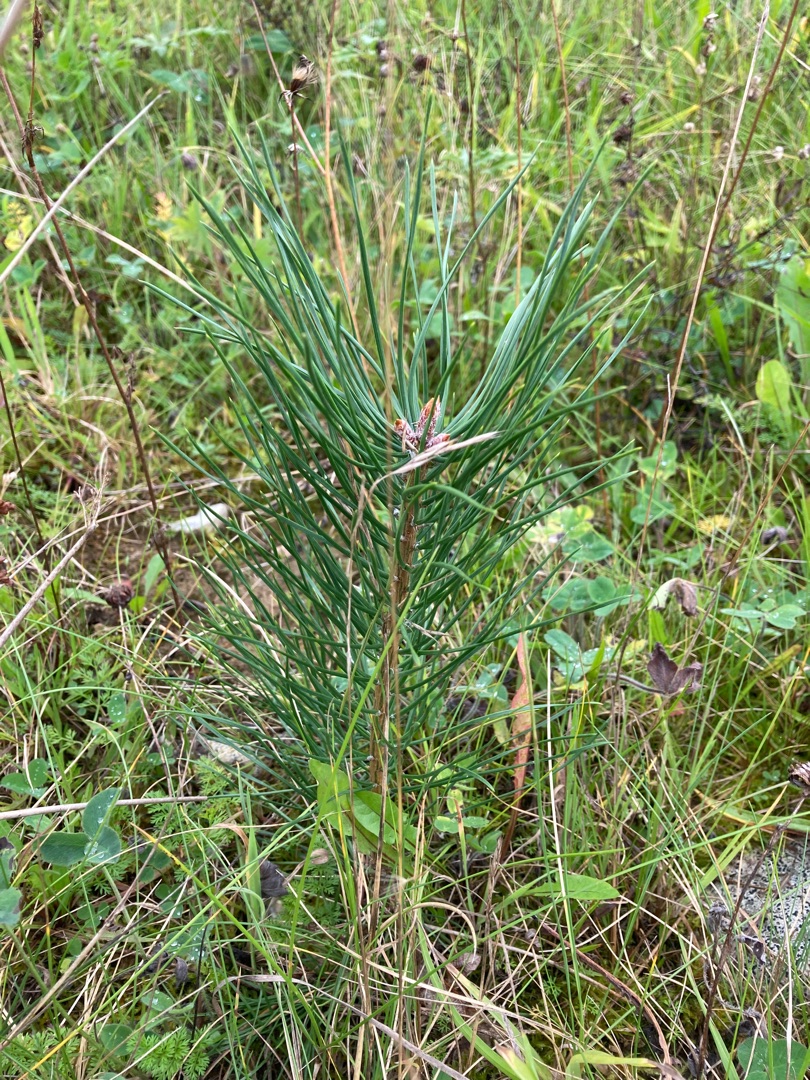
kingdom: Plantae
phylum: Tracheophyta
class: Pinopsida
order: Pinales
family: Pinaceae
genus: Pinus
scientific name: Pinus sylvestris
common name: Skov-fyr
